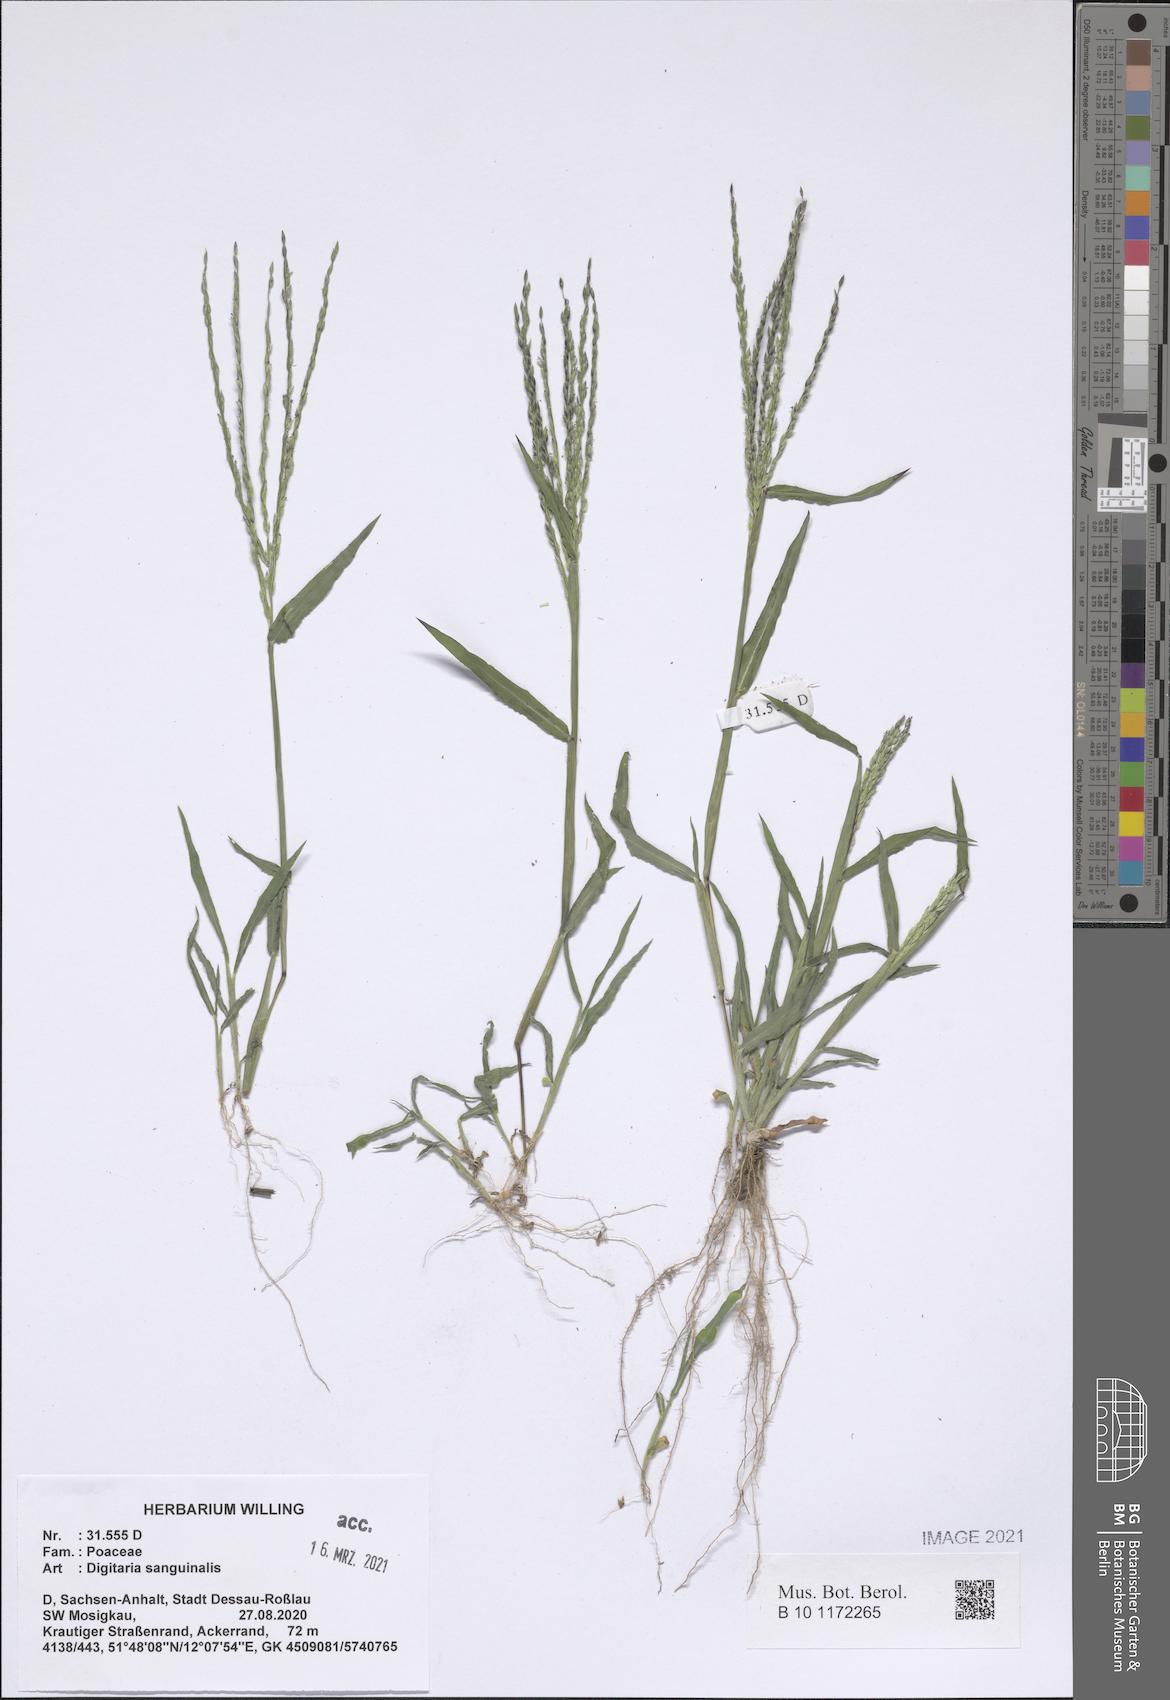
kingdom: Plantae
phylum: Tracheophyta
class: Liliopsida
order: Poales
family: Poaceae
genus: Digitaria
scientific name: Digitaria sanguinalis
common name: Hairy crabgrass
